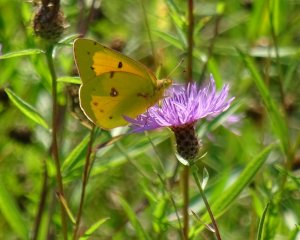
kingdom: Animalia
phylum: Arthropoda
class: Insecta
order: Lepidoptera
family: Pieridae
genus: Colias
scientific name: Colias eurytheme
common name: Orange Sulphur
